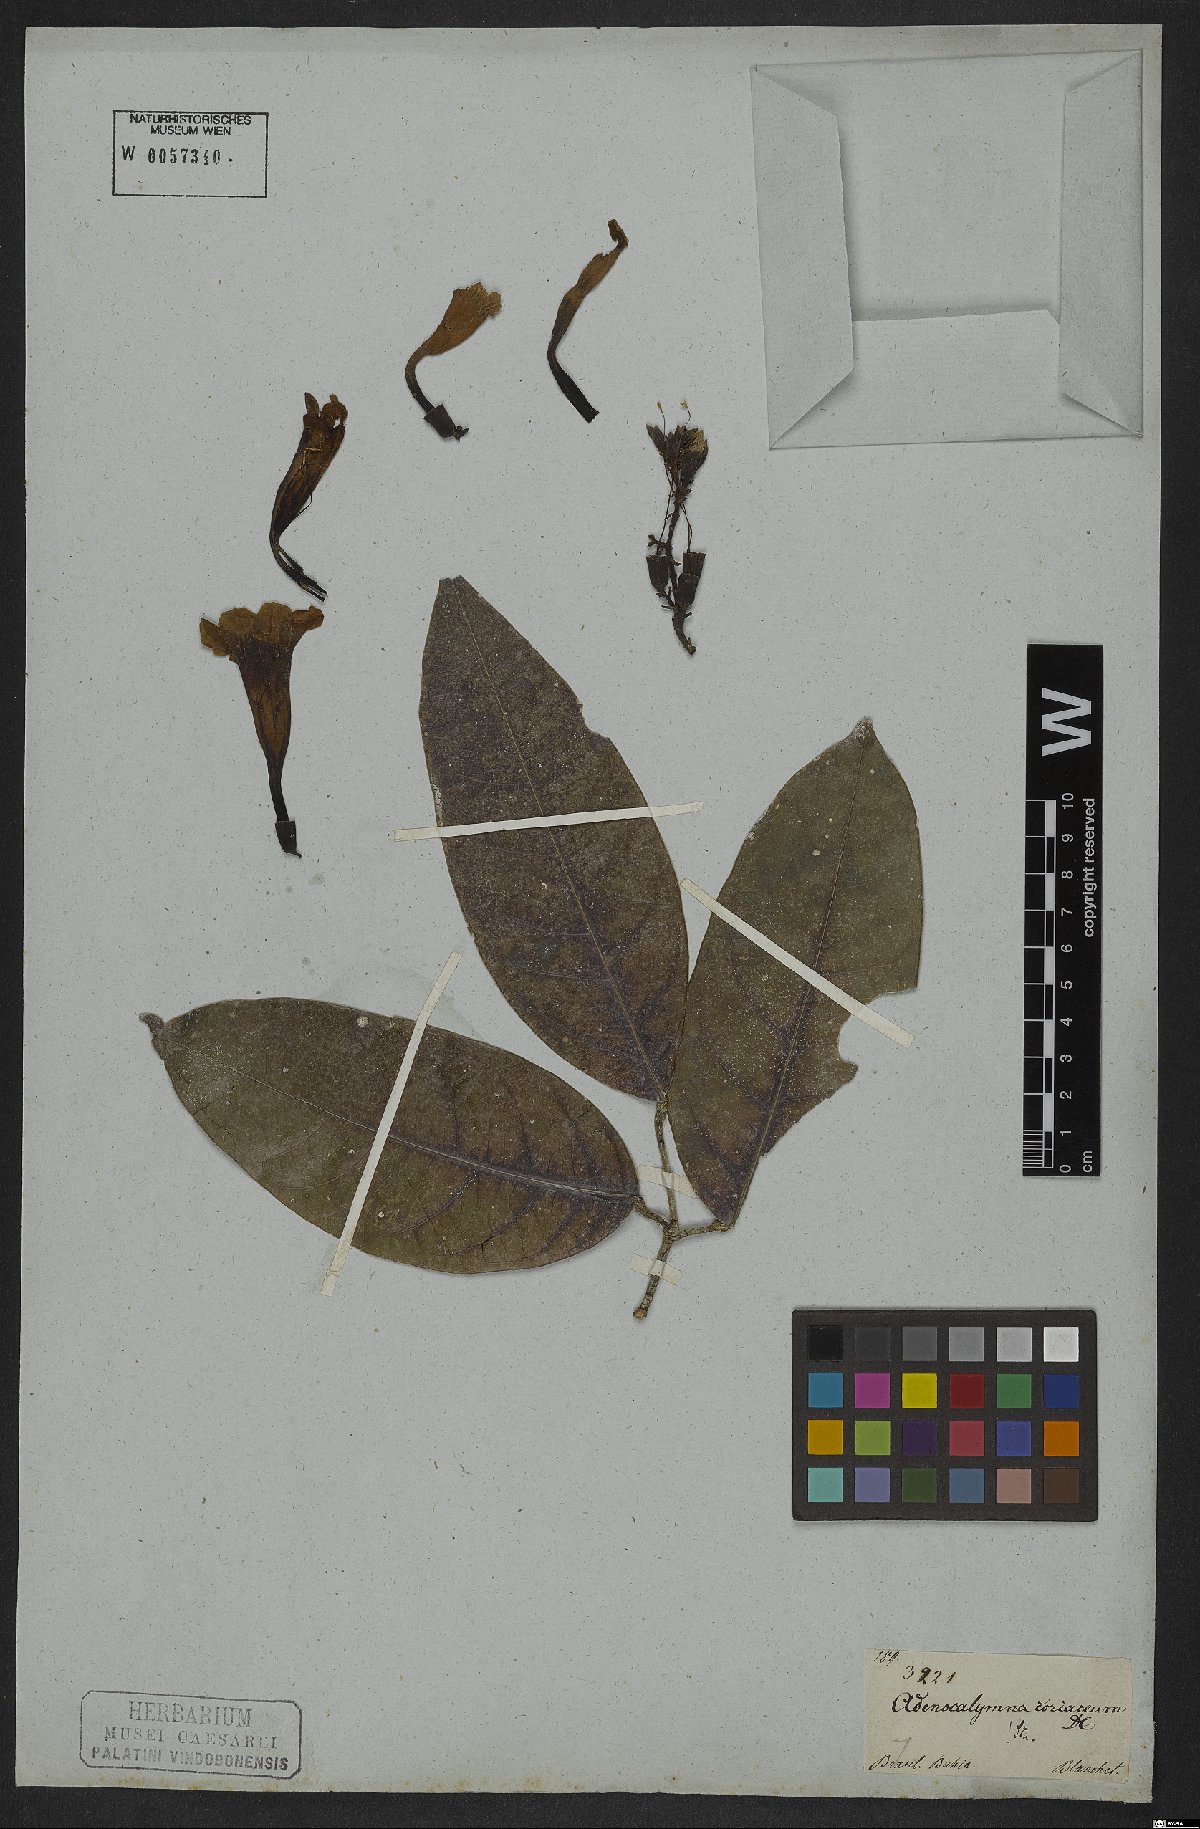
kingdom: Plantae
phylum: Tracheophyta
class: Magnoliopsida
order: Lamiales
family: Bignoniaceae
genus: Adenocalymma
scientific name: Adenocalymma coriaceum
